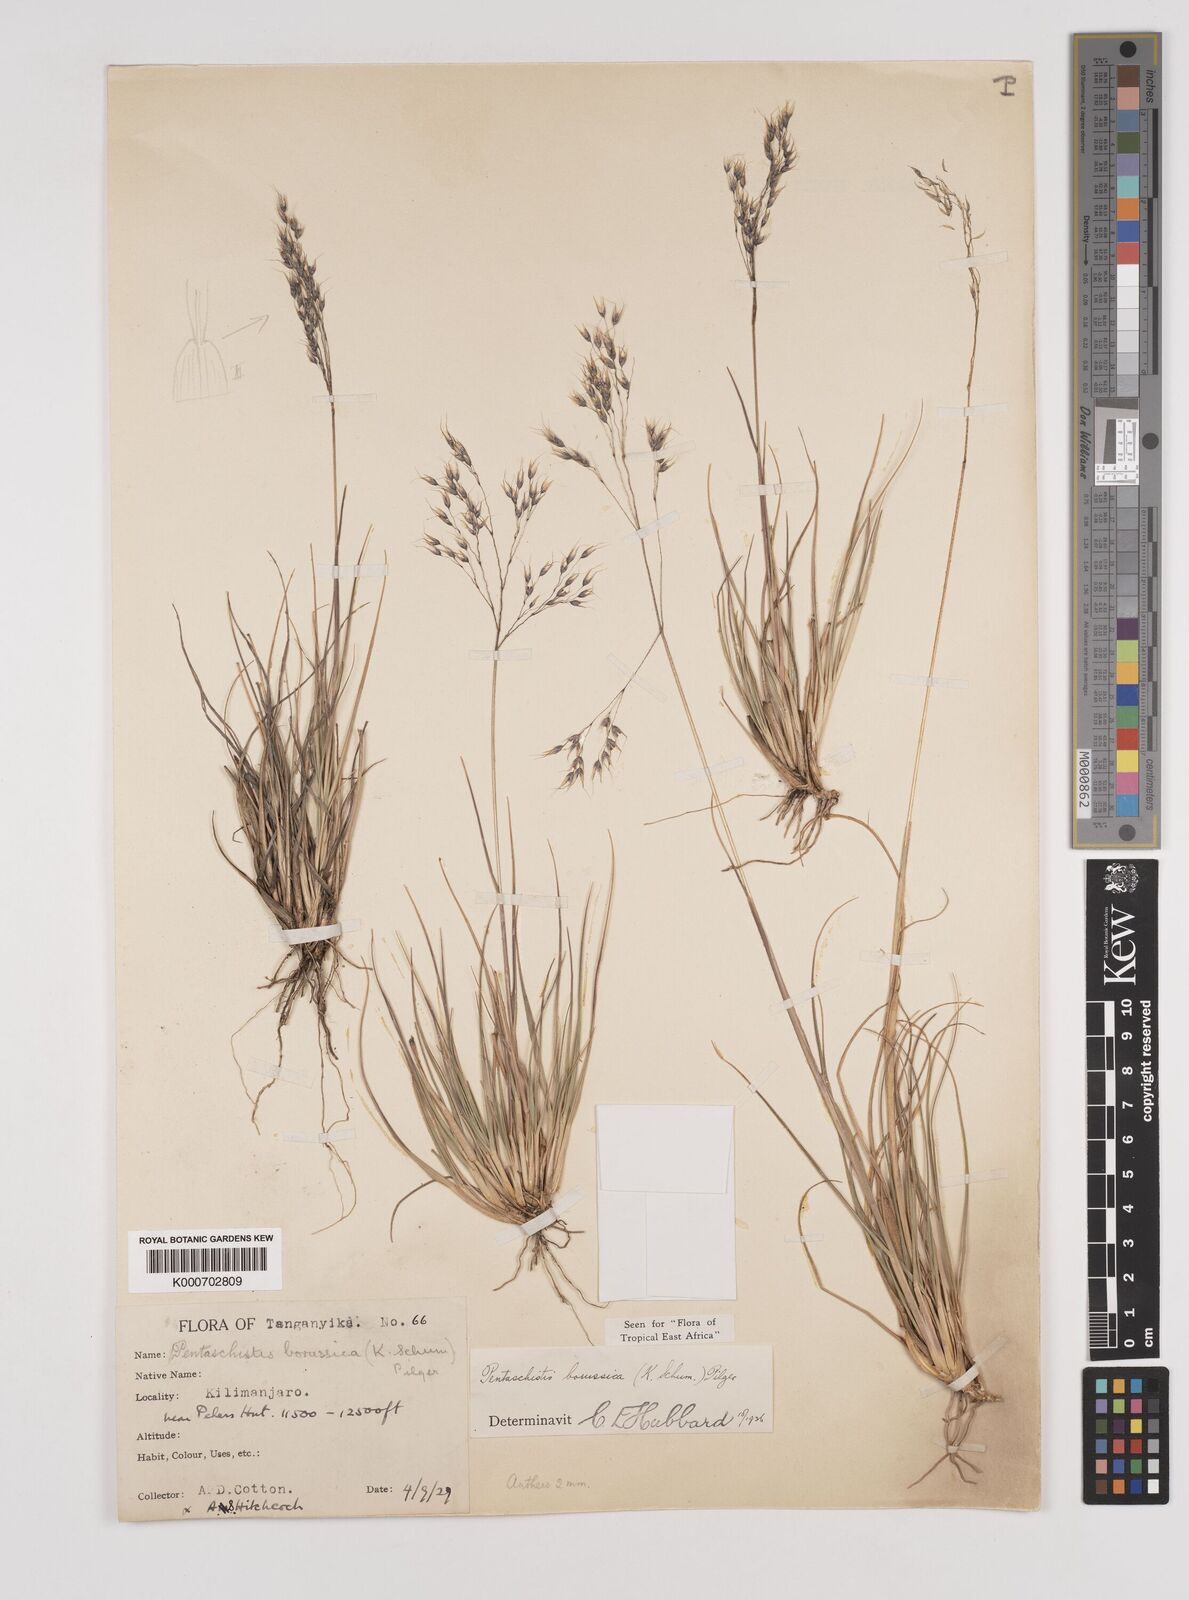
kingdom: Plantae
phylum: Tracheophyta
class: Liliopsida
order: Poales
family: Poaceae
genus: Pentameris
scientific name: Pentameris borussica
